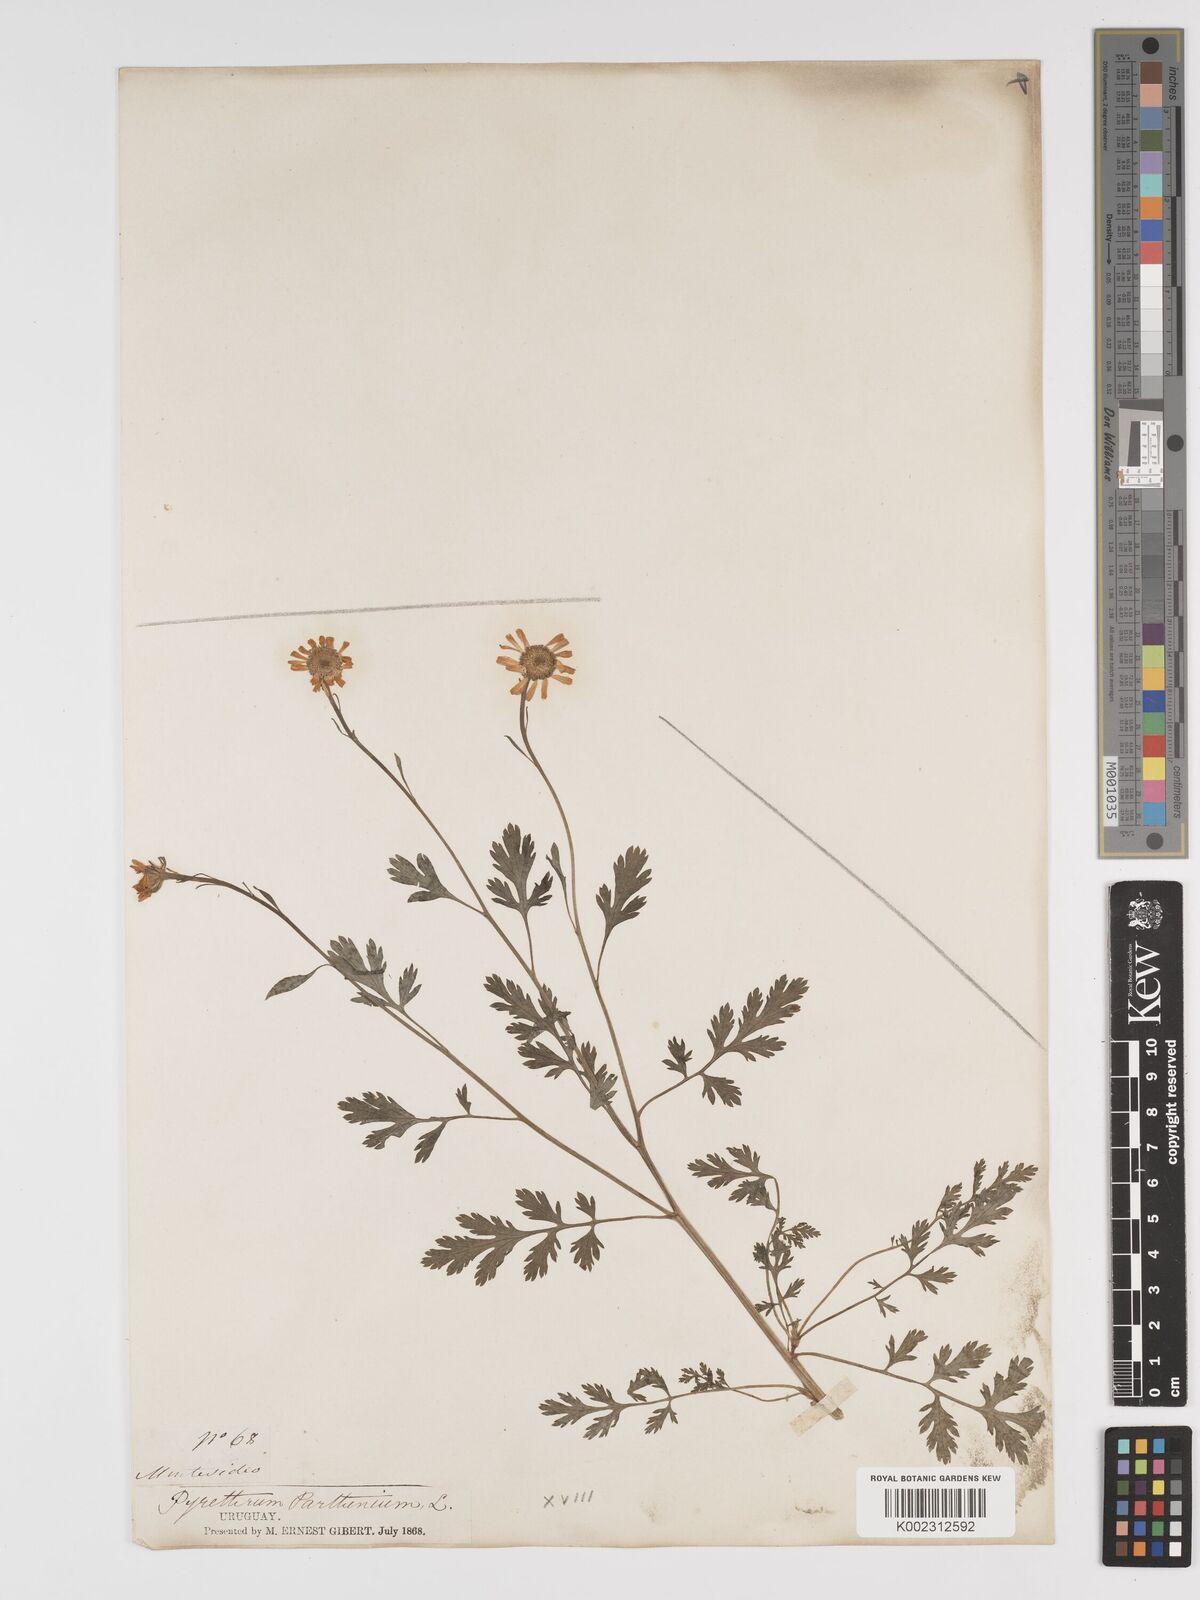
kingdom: Plantae
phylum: Tracheophyta
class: Magnoliopsida
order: Asterales
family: Asteraceae
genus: Tanacetum
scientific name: Tanacetum parthenium
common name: Feverfew
